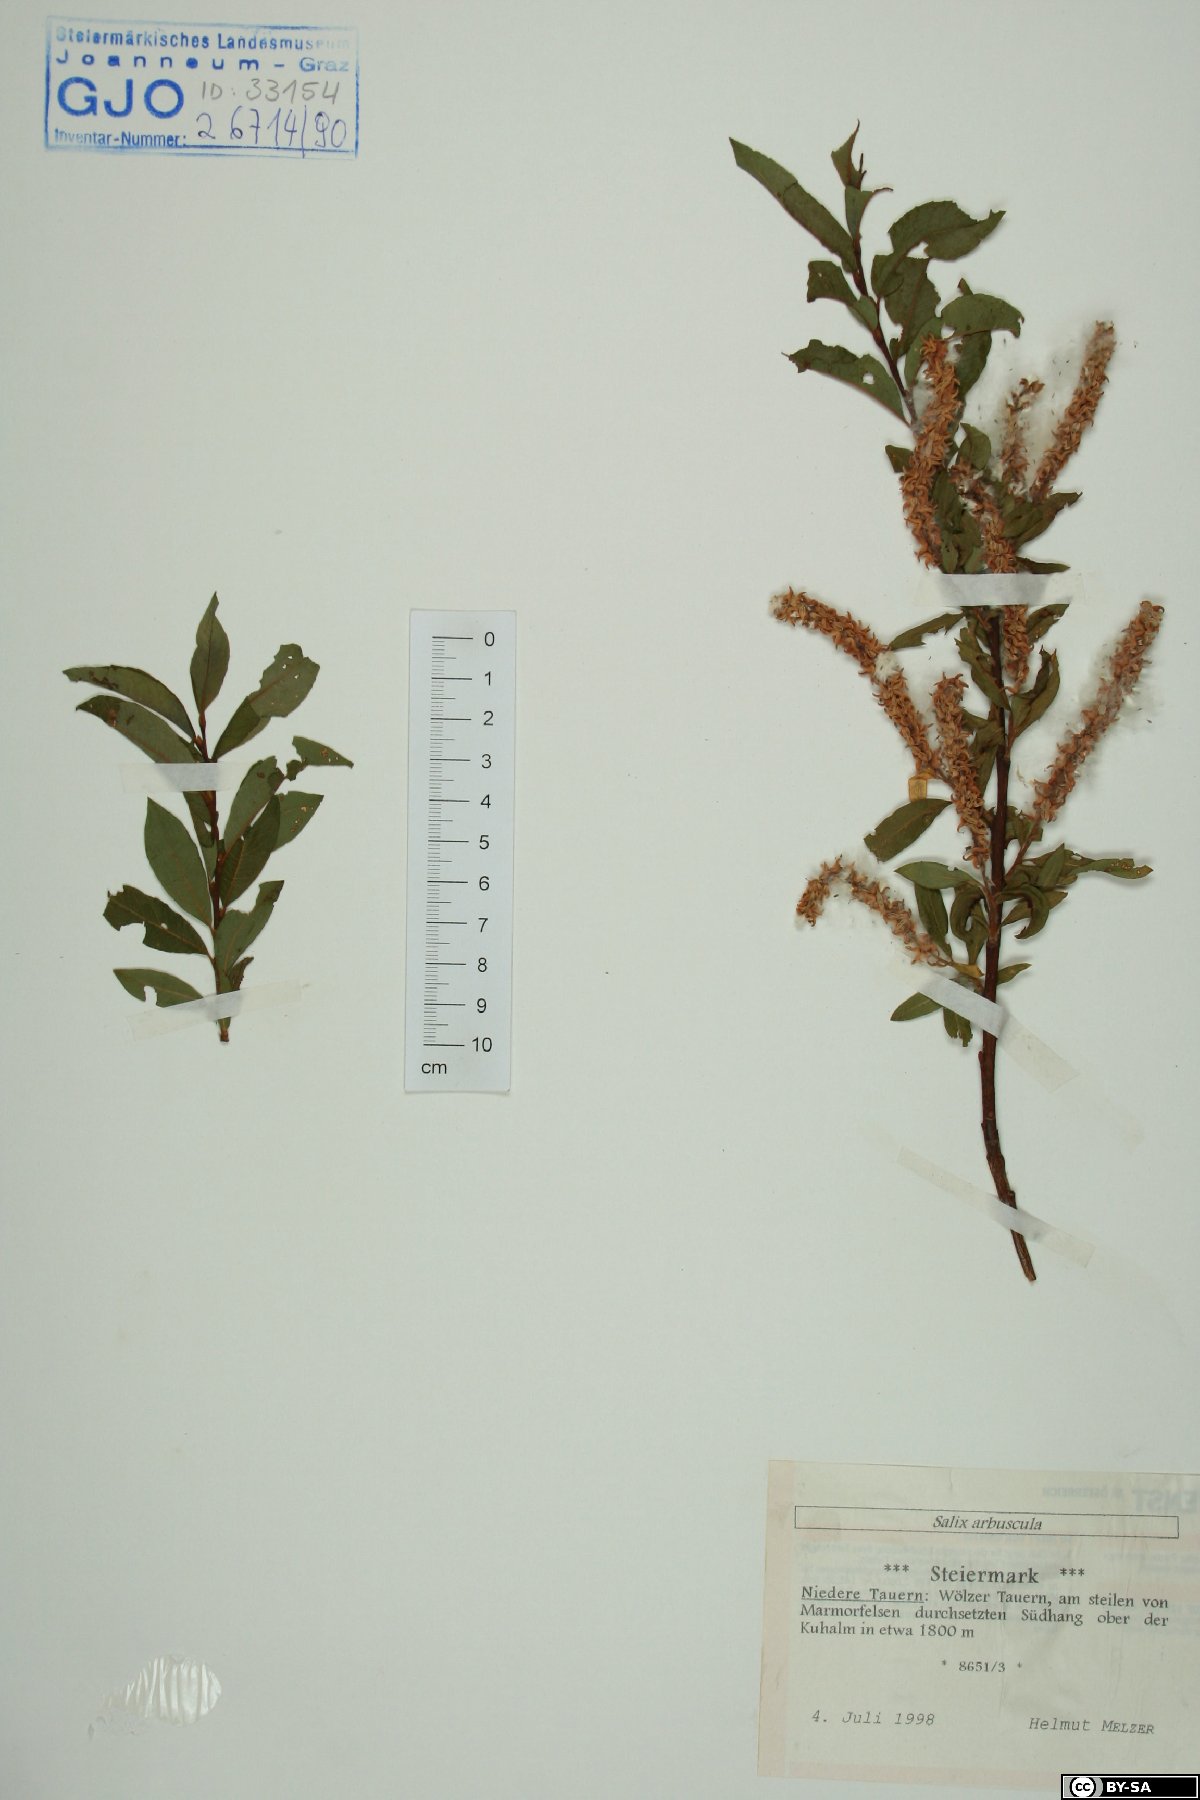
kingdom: Plantae
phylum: Tracheophyta
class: Magnoliopsida
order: Malpighiales
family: Salicaceae
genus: Salix
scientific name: Salix arbuscula
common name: Mountain willow
